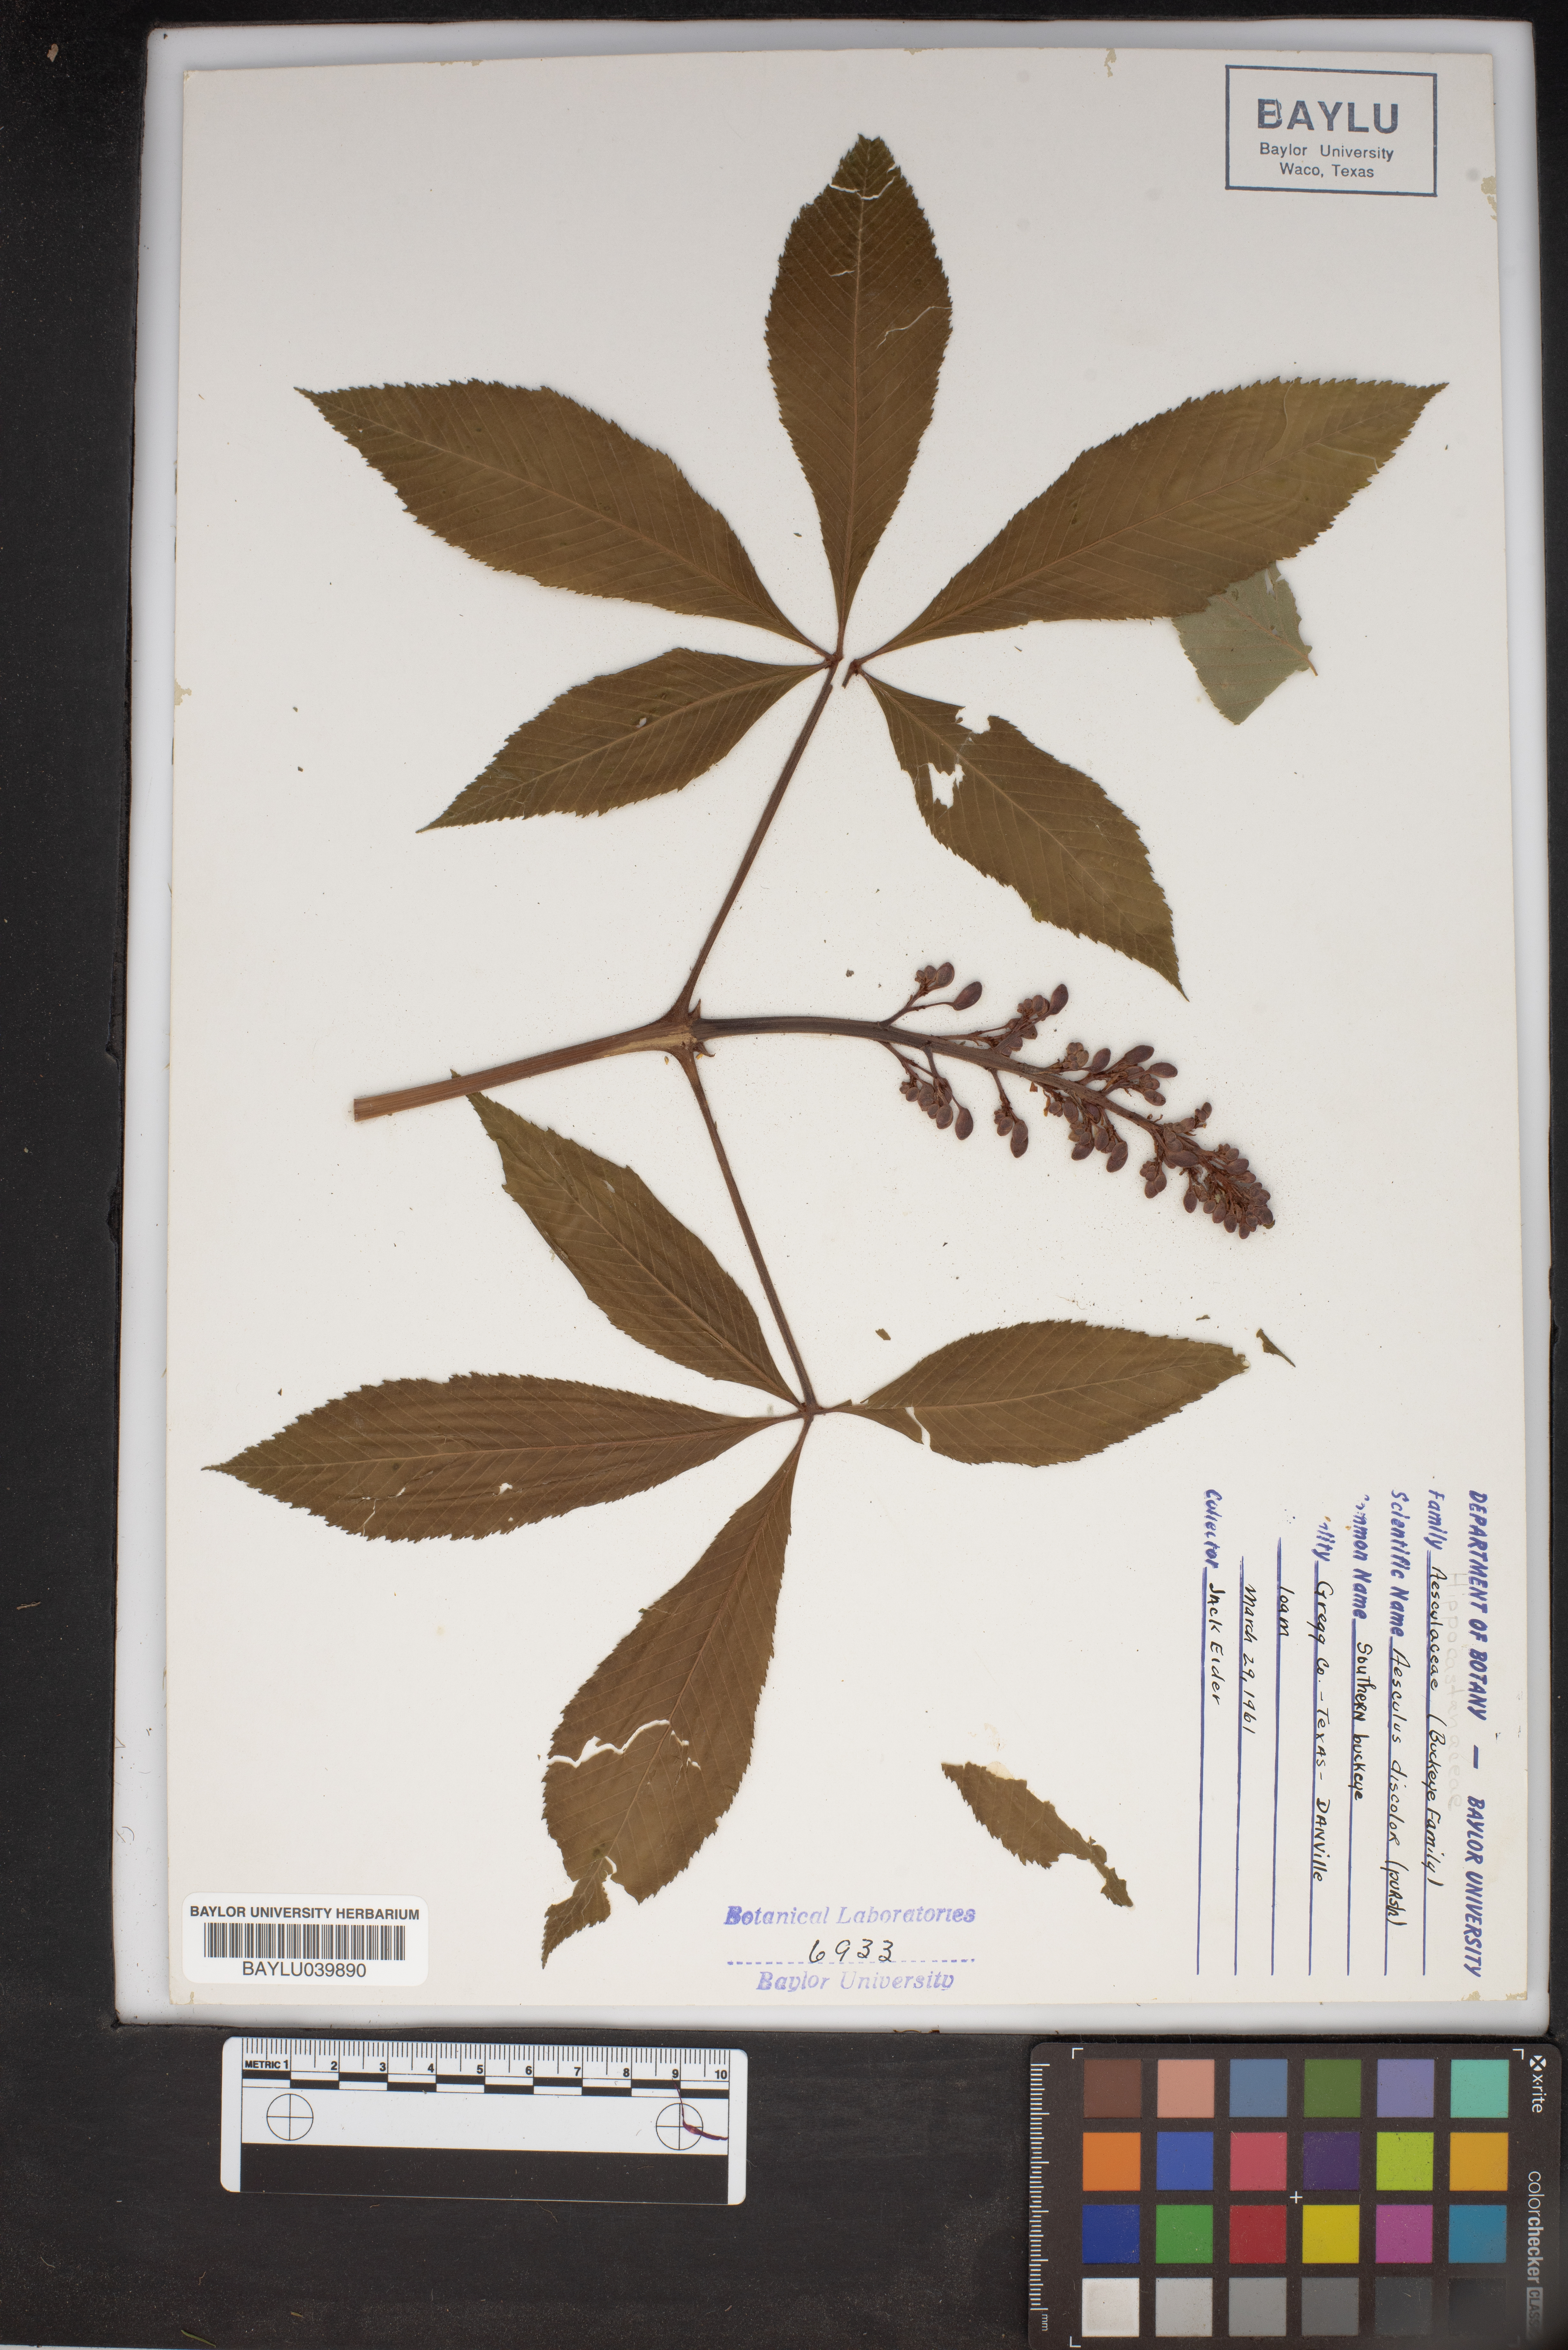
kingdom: Plantae
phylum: Tracheophyta
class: Magnoliopsida
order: Sapindales
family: Sapindaceae
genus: Aesculus
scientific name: Aesculus pavia
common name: Red buckeye
